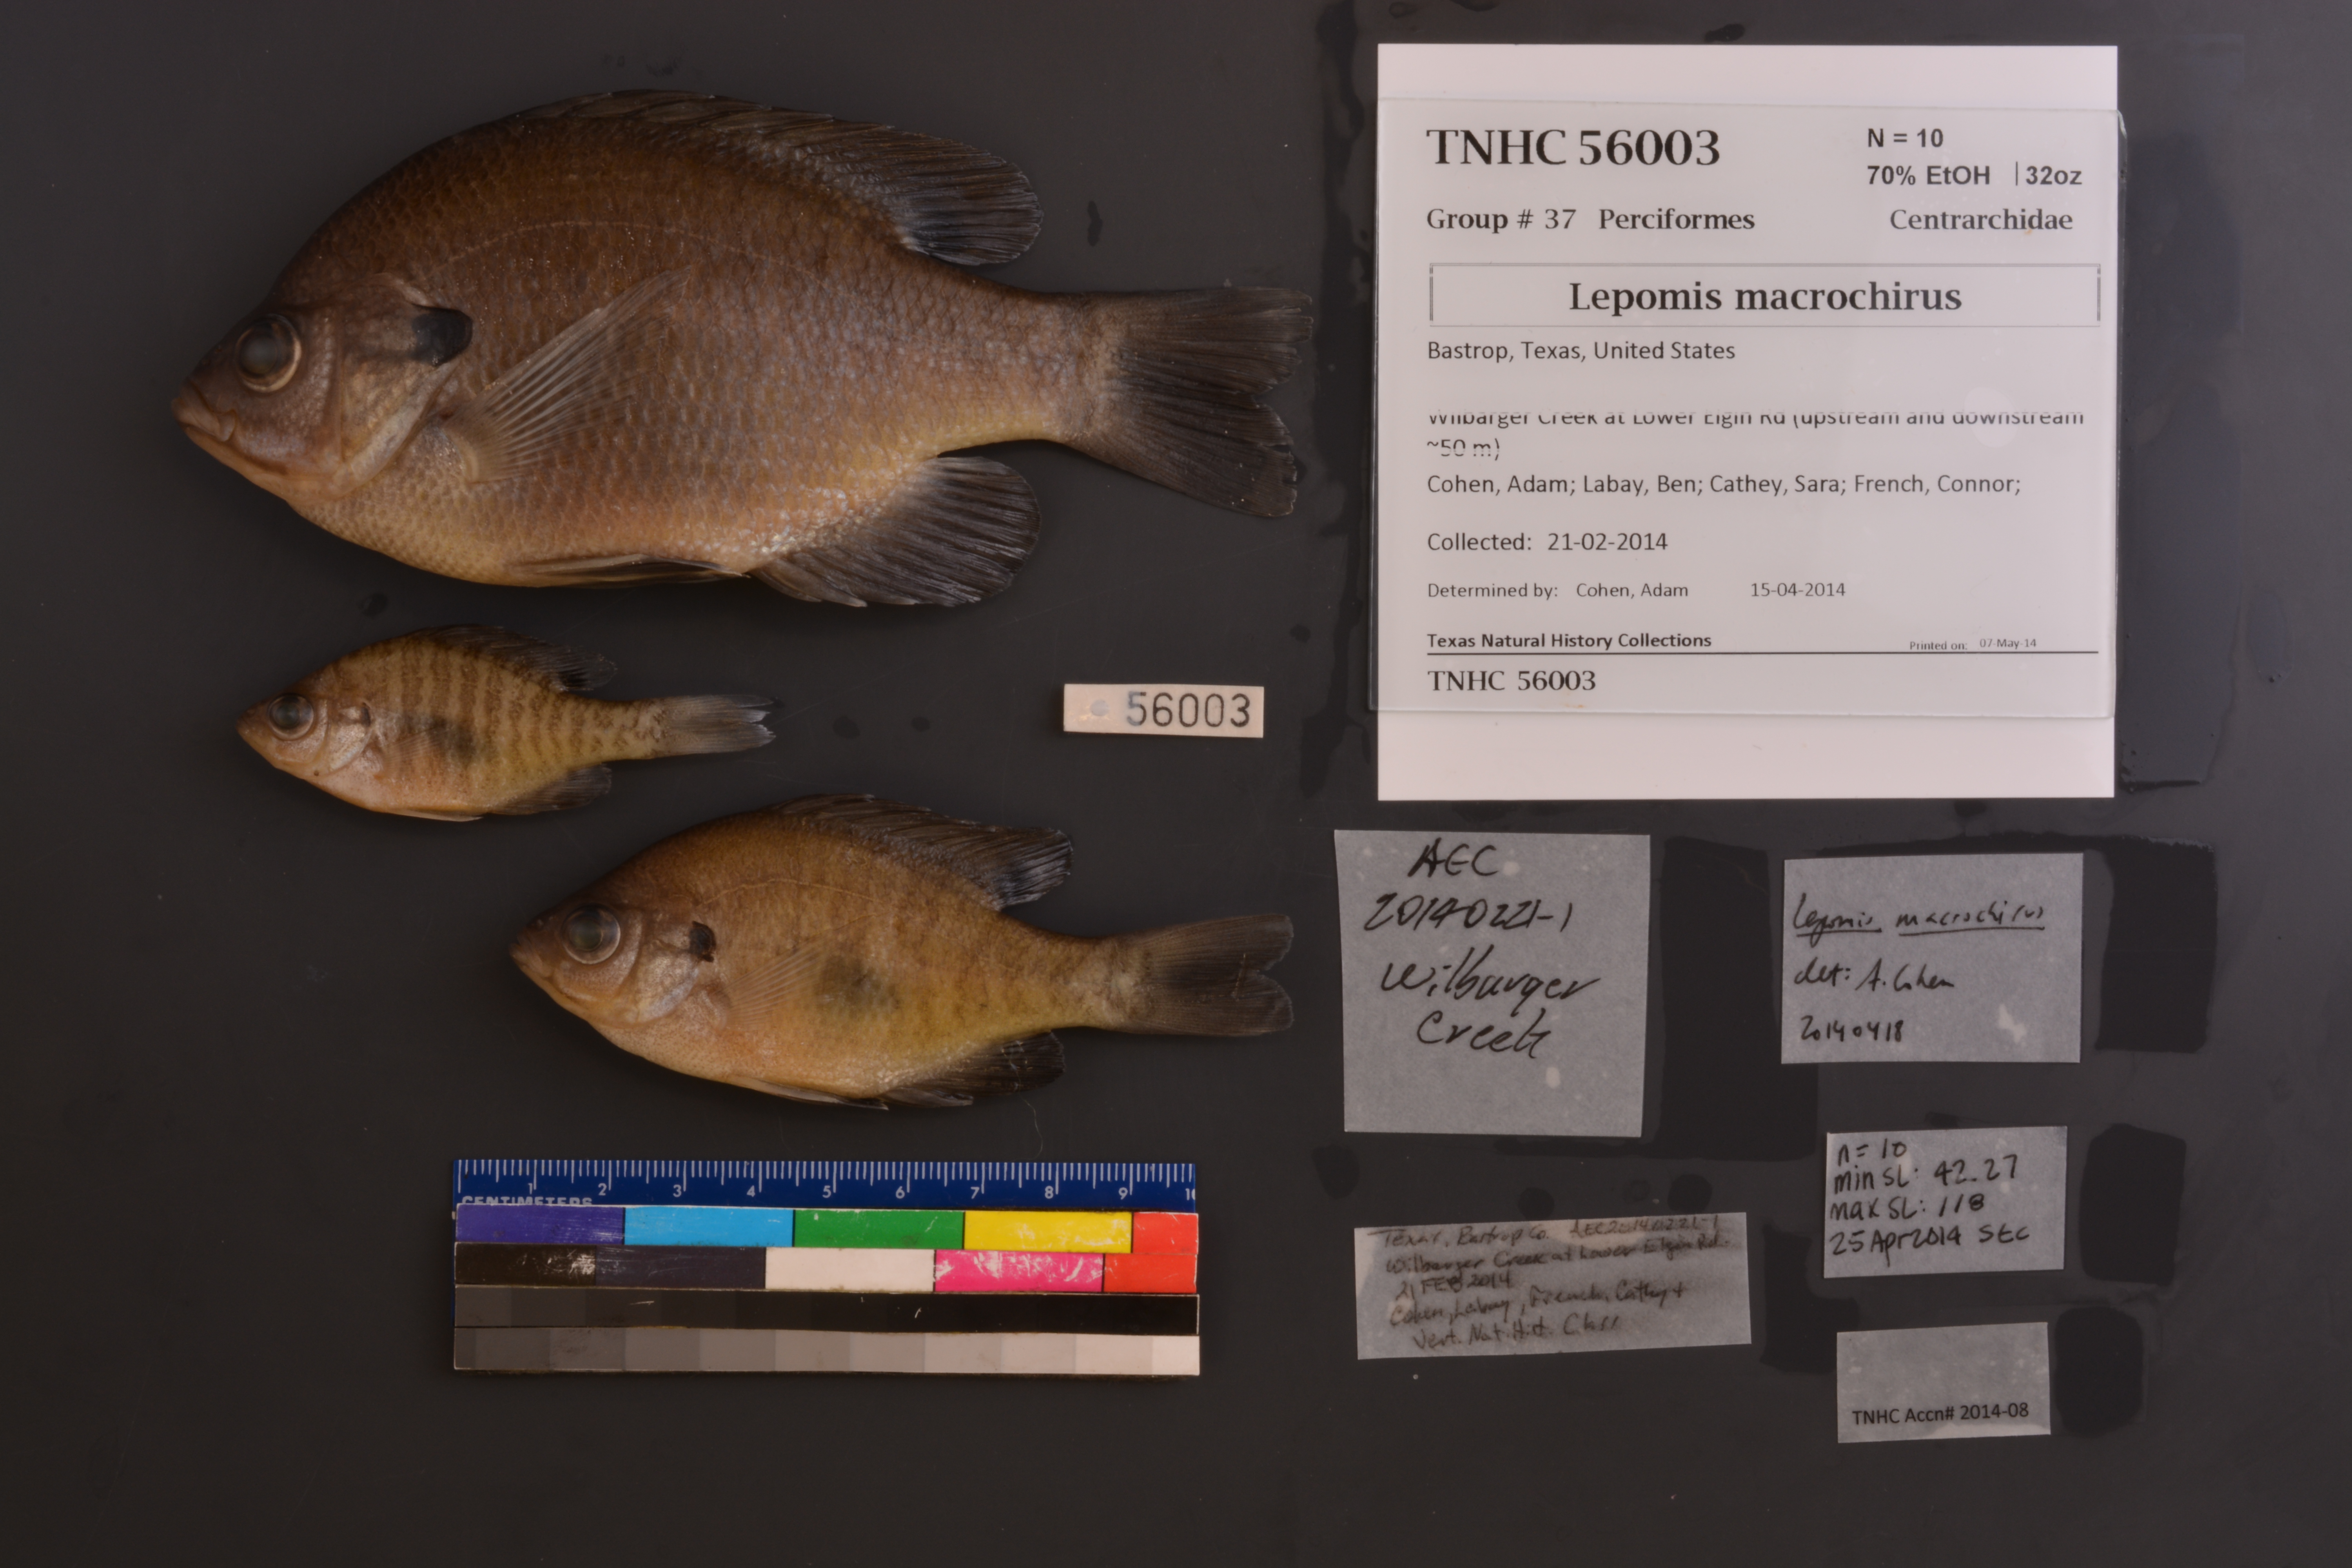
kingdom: Animalia
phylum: Chordata
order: Perciformes
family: Centrarchidae
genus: Lepomis
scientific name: Lepomis macrochirus
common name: Bluegill
